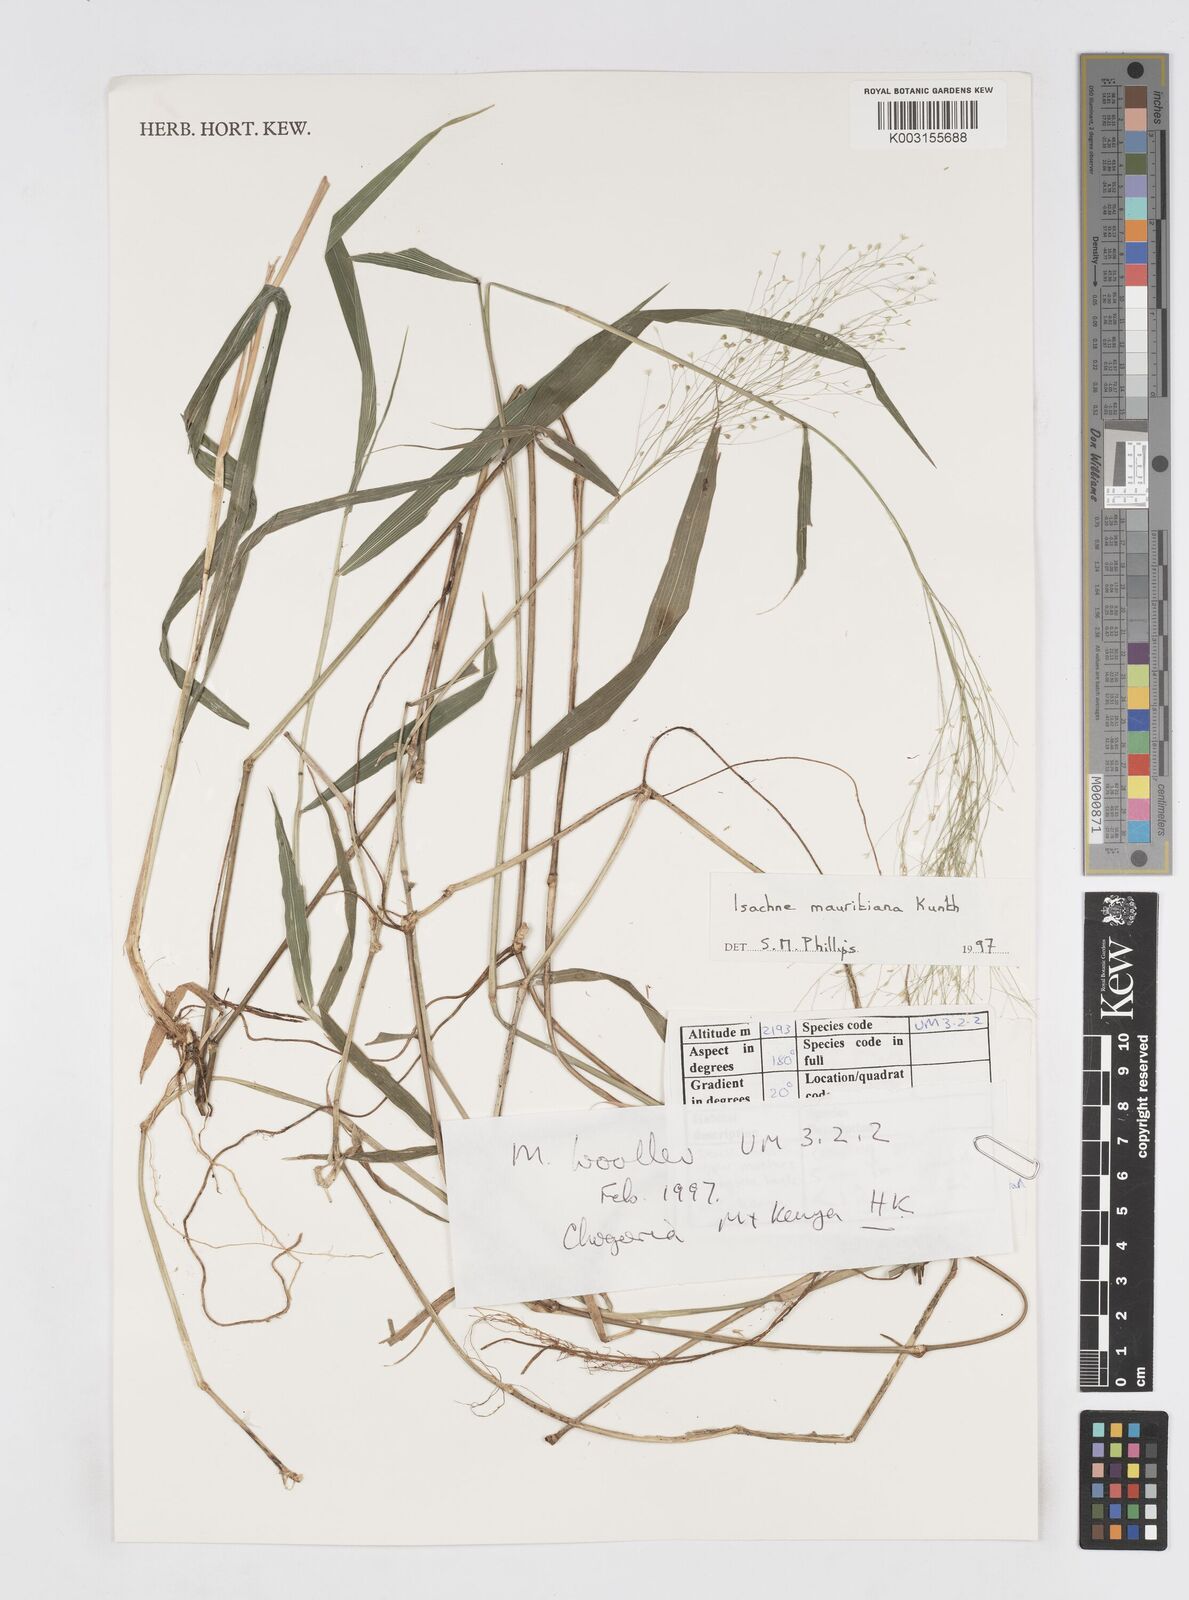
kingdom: Plantae
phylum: Tracheophyta
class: Liliopsida
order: Poales
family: Poaceae
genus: Isachne
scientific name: Isachne mauritiana
